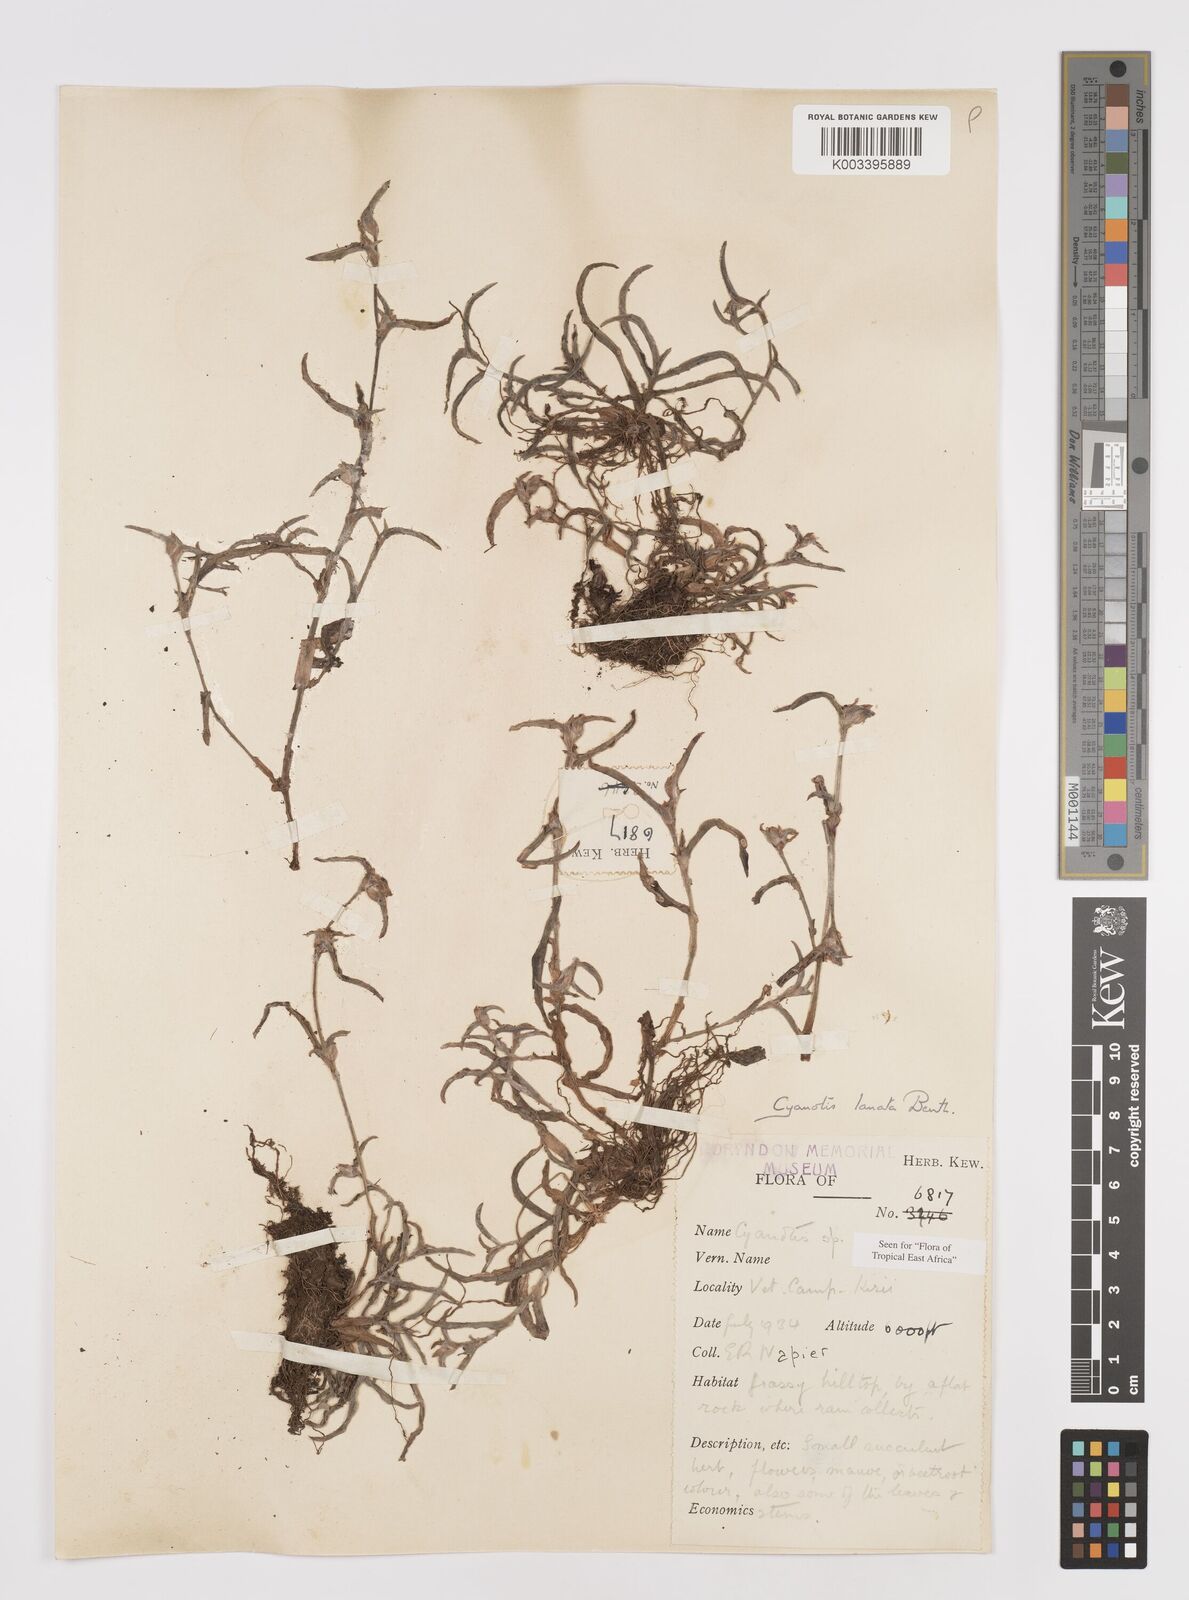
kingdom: Plantae
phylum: Tracheophyta
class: Liliopsida
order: Commelinales
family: Commelinaceae
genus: Cyanotis
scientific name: Cyanotis lanata
